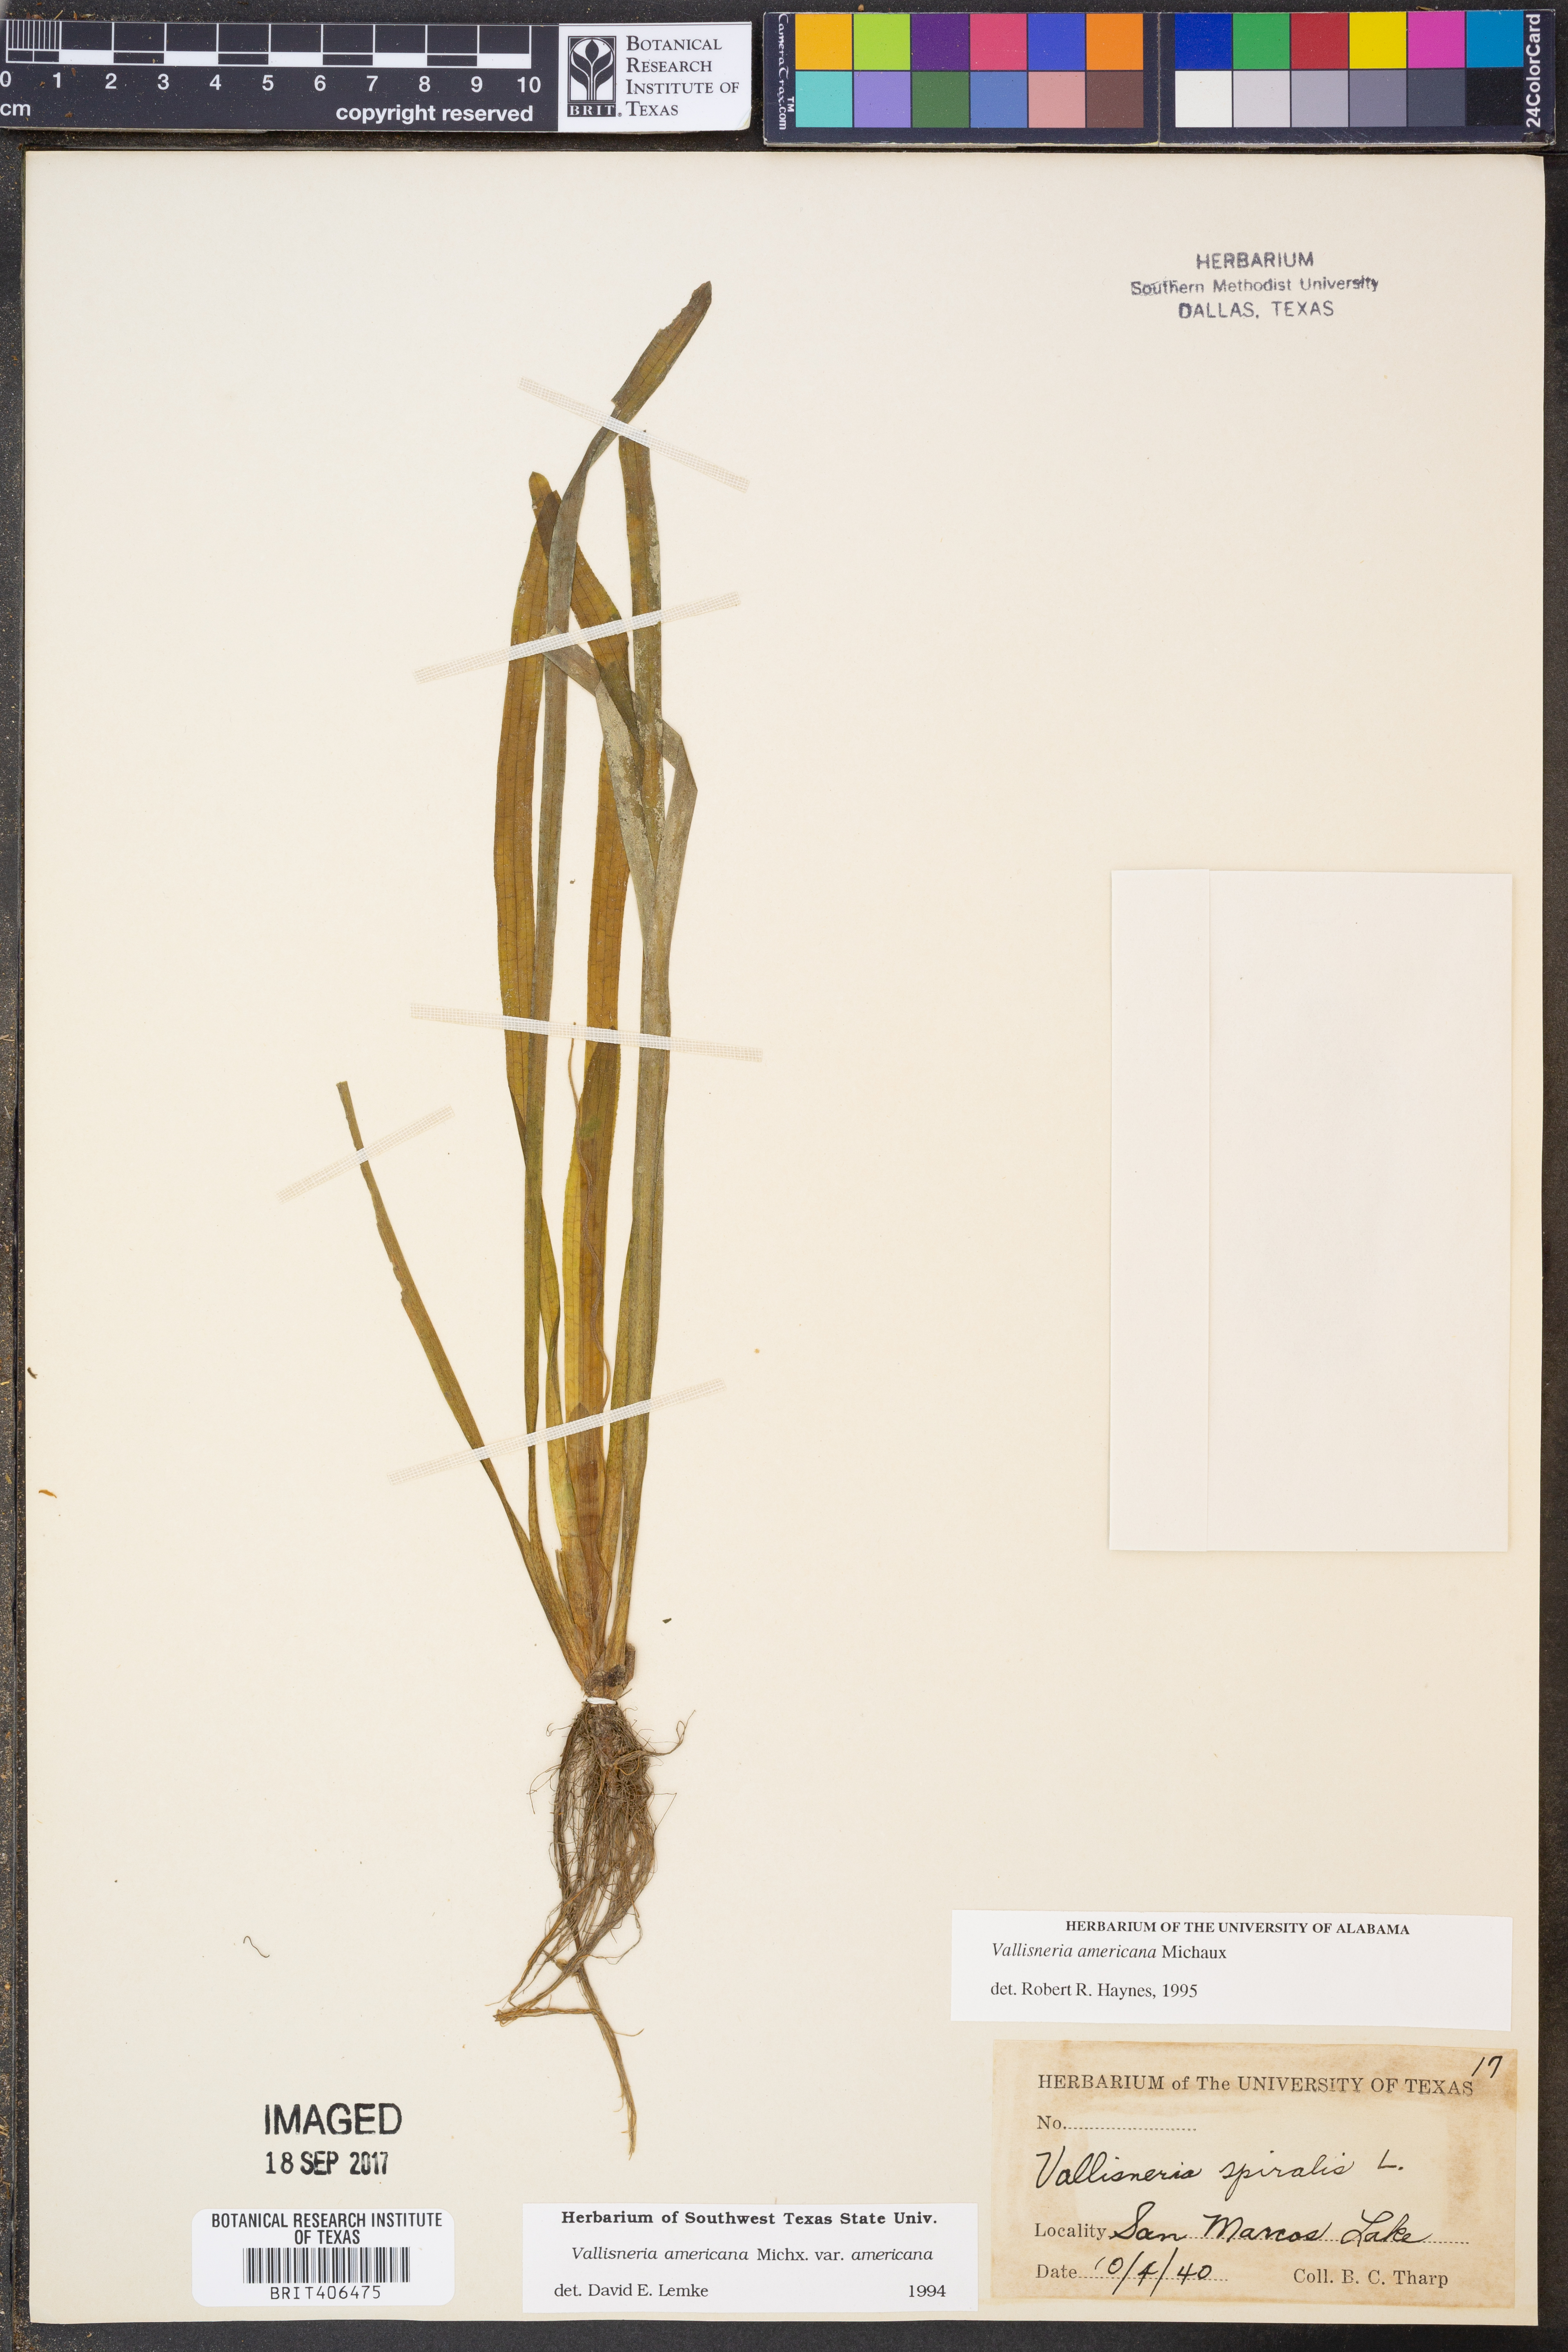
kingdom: Plantae
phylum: Tracheophyta
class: Liliopsida
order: Alismatales
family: Hydrocharitaceae
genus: Vallisneria
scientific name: Vallisneria americana
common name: American eelgrass
